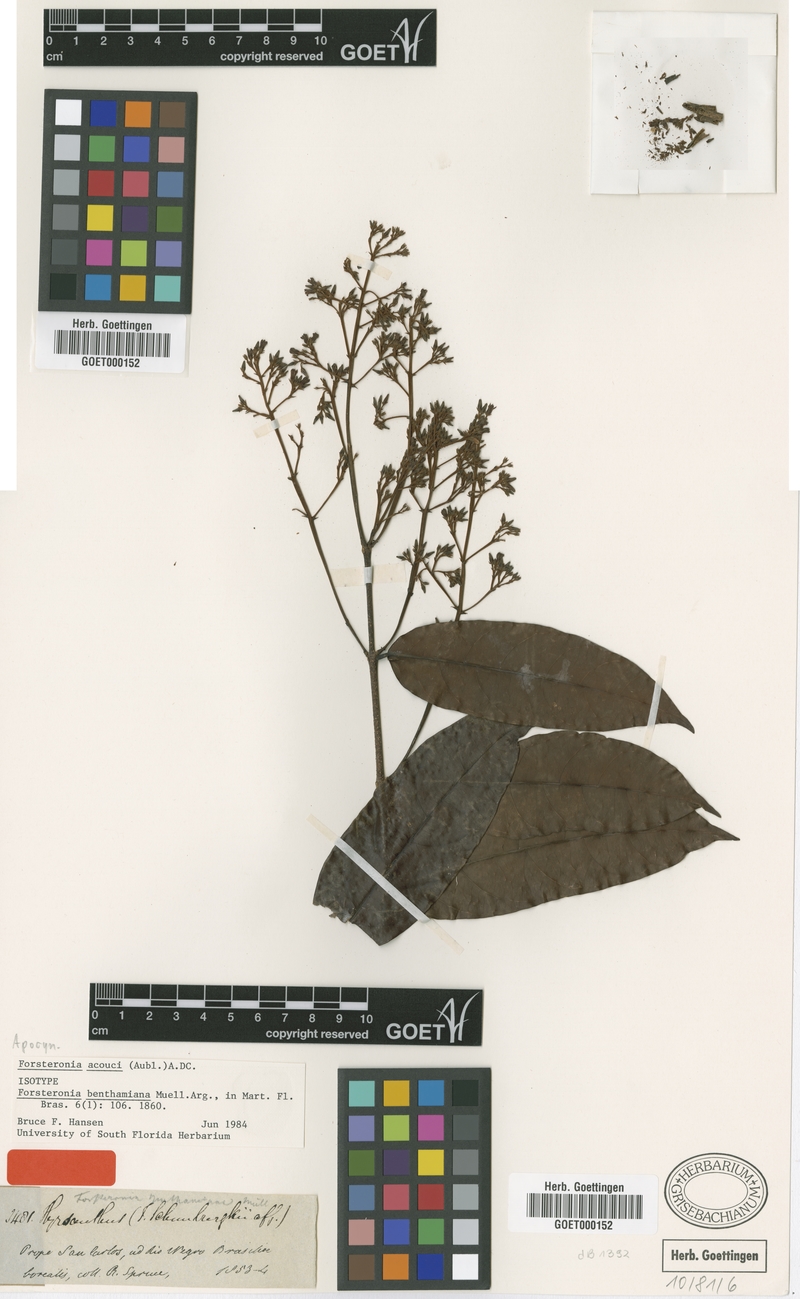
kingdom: Plantae
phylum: Tracheophyta
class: Magnoliopsida
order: Gentianales
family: Apocynaceae
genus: Forsteronia
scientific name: Forsteronia acouci
